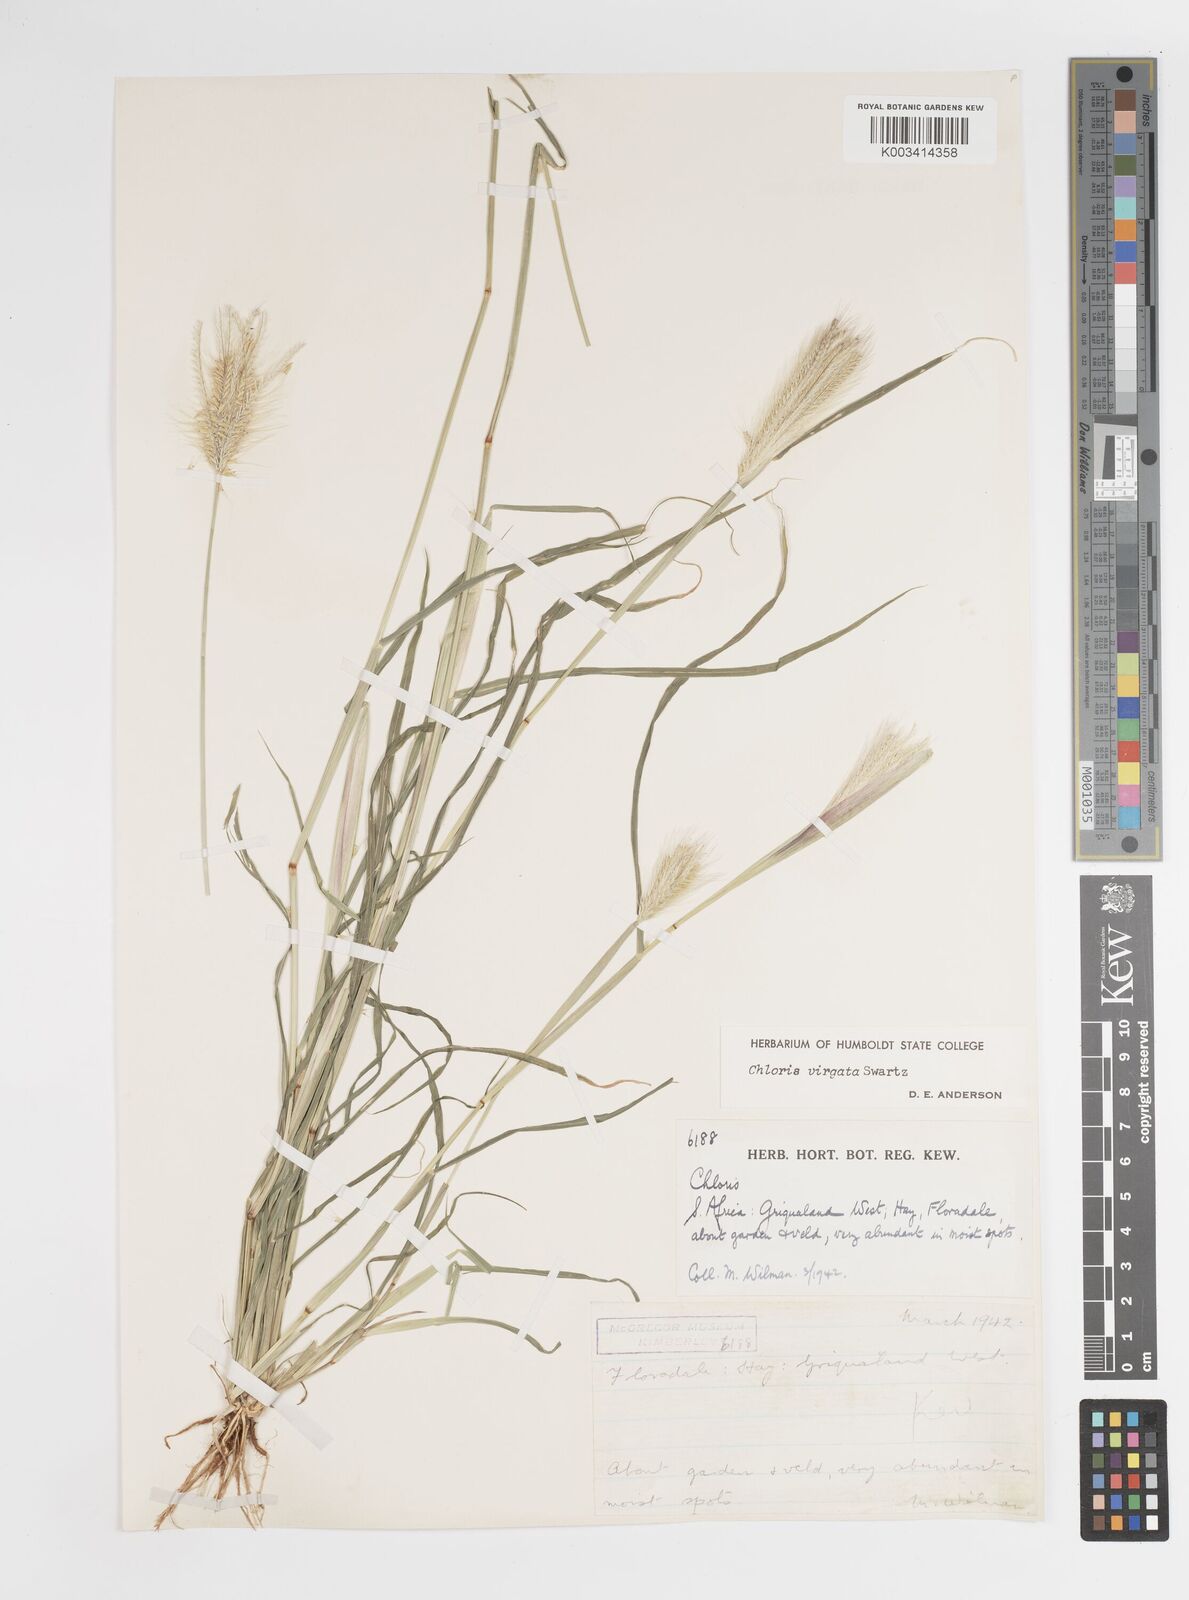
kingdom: Plantae
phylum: Tracheophyta
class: Liliopsida
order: Poales
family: Poaceae
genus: Chloris
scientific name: Chloris virgata
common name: Feathery rhodes-grass
